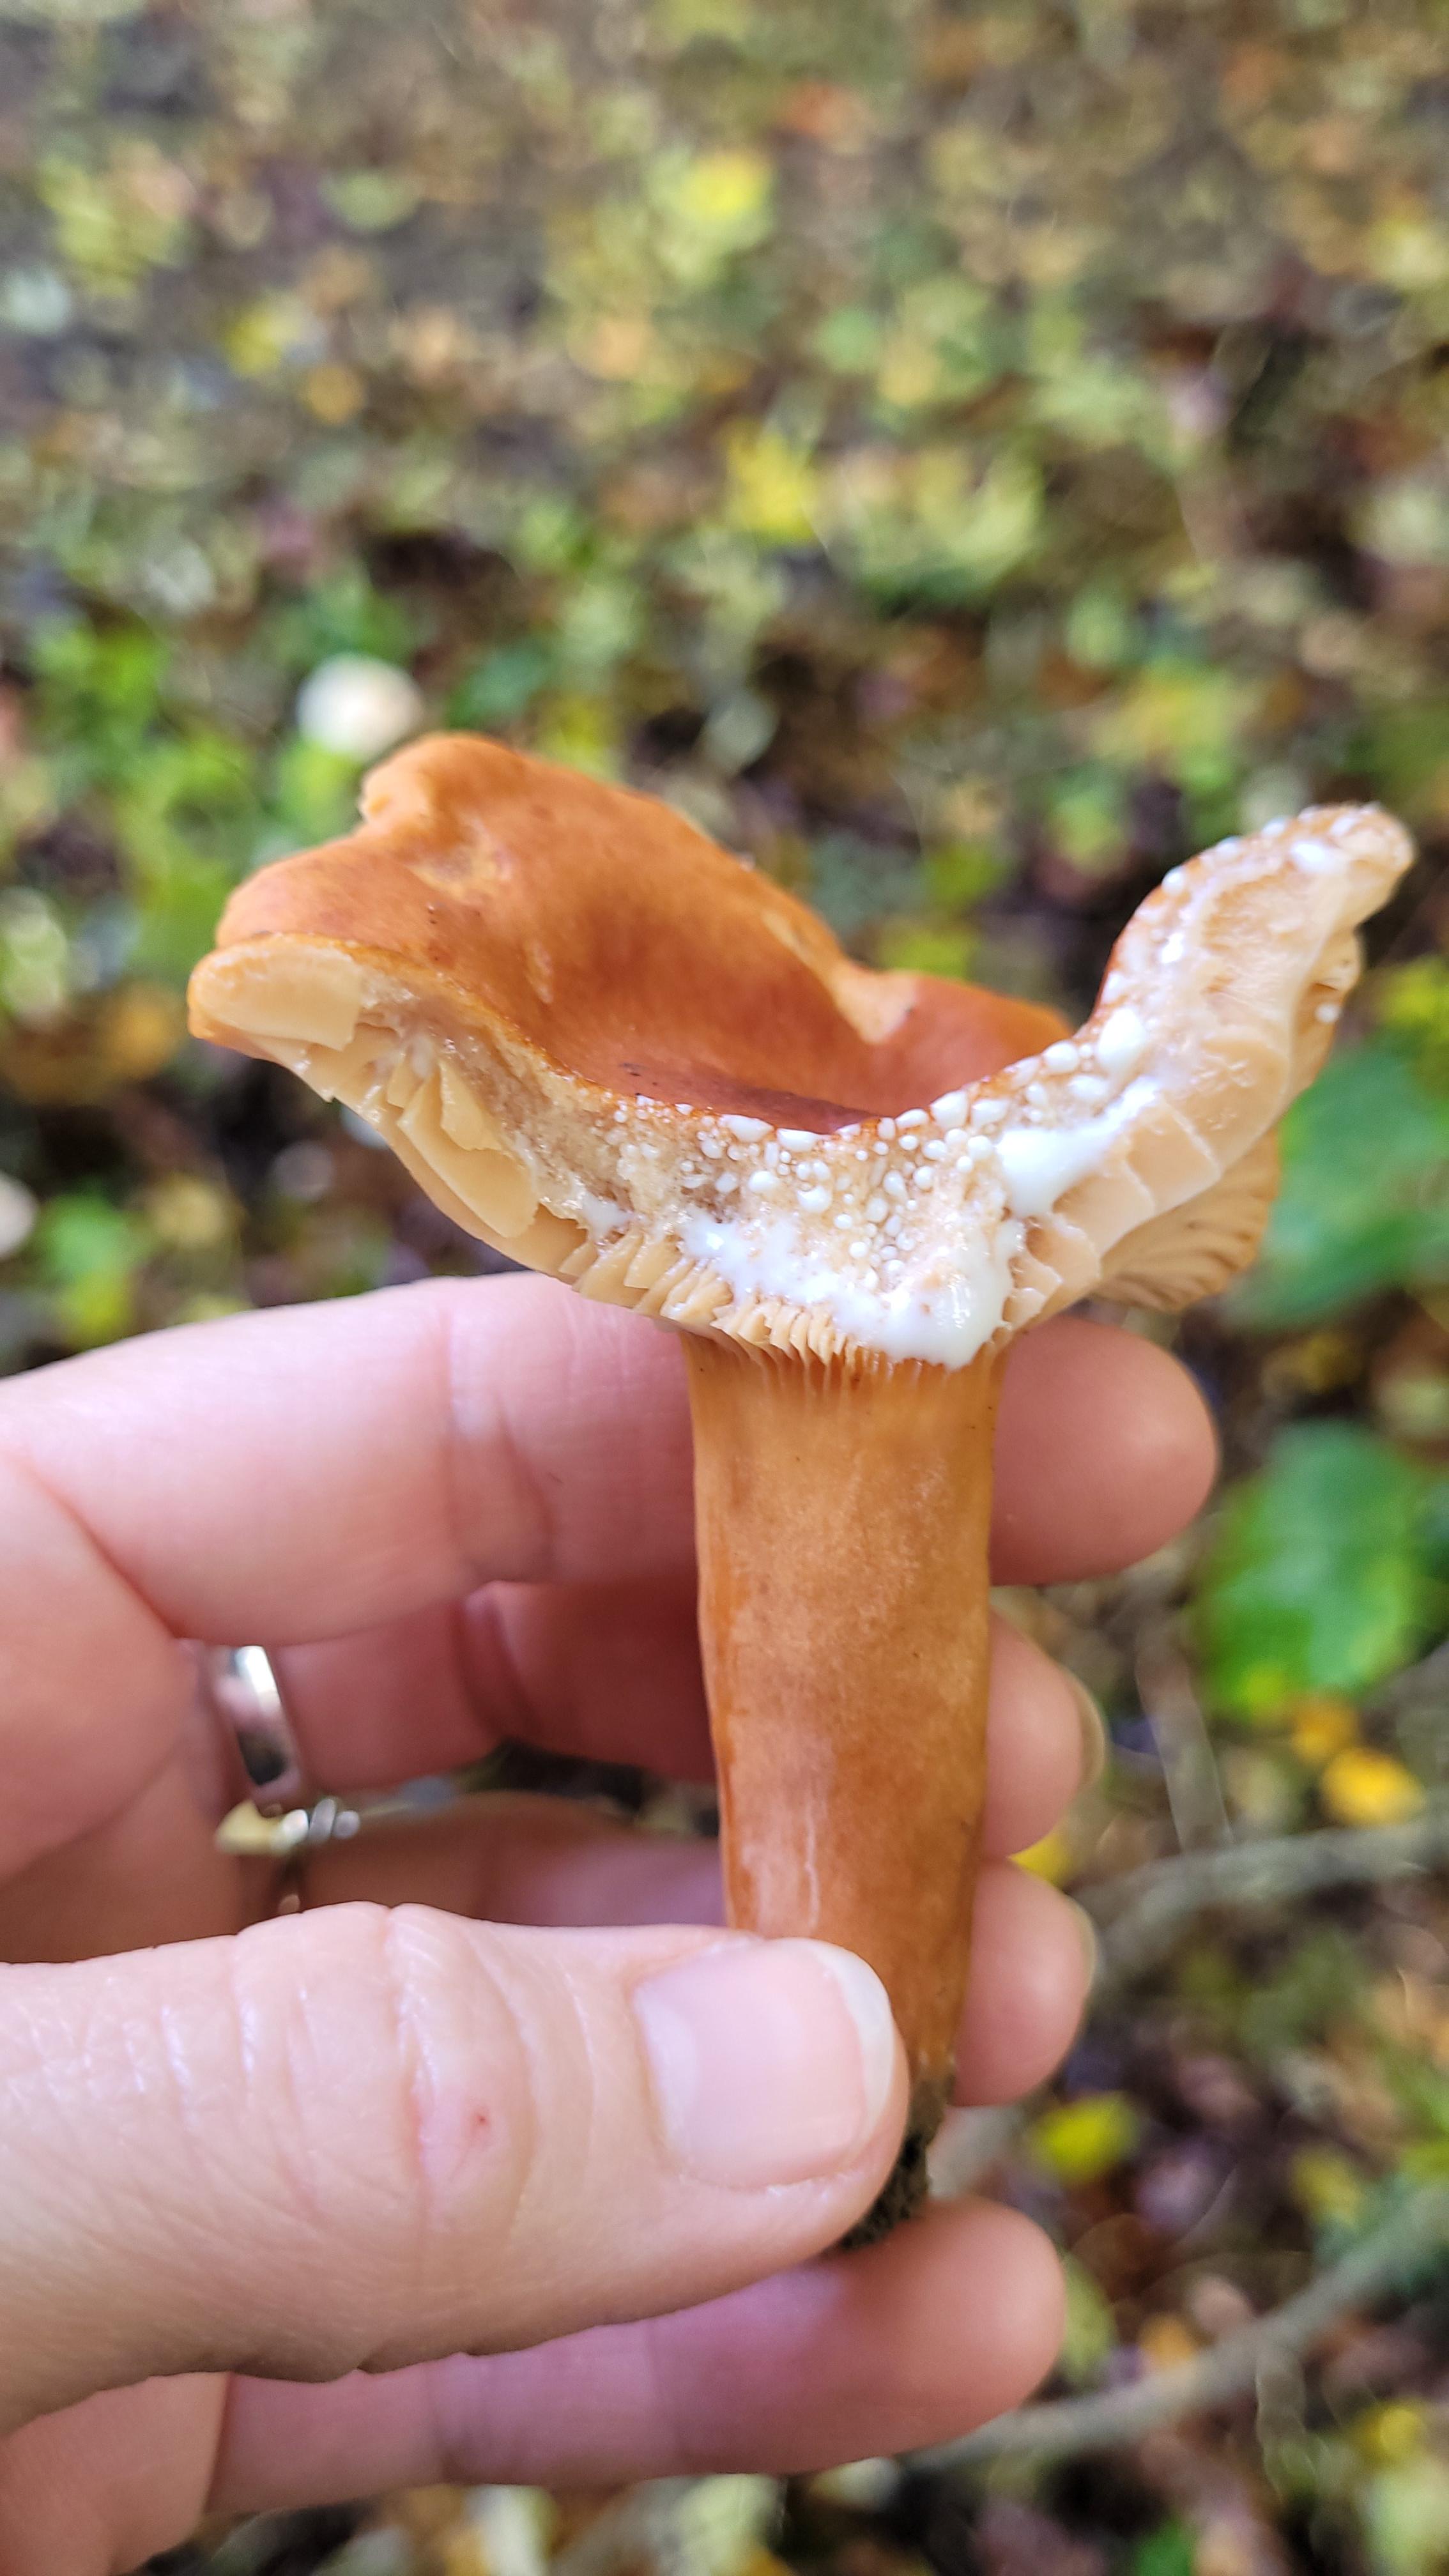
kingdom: Fungi
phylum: Basidiomycota
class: Agaricomycetes
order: Russulales
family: Russulaceae
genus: Lactarius
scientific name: Lactarius subdulcis
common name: sødlig mælkehat
